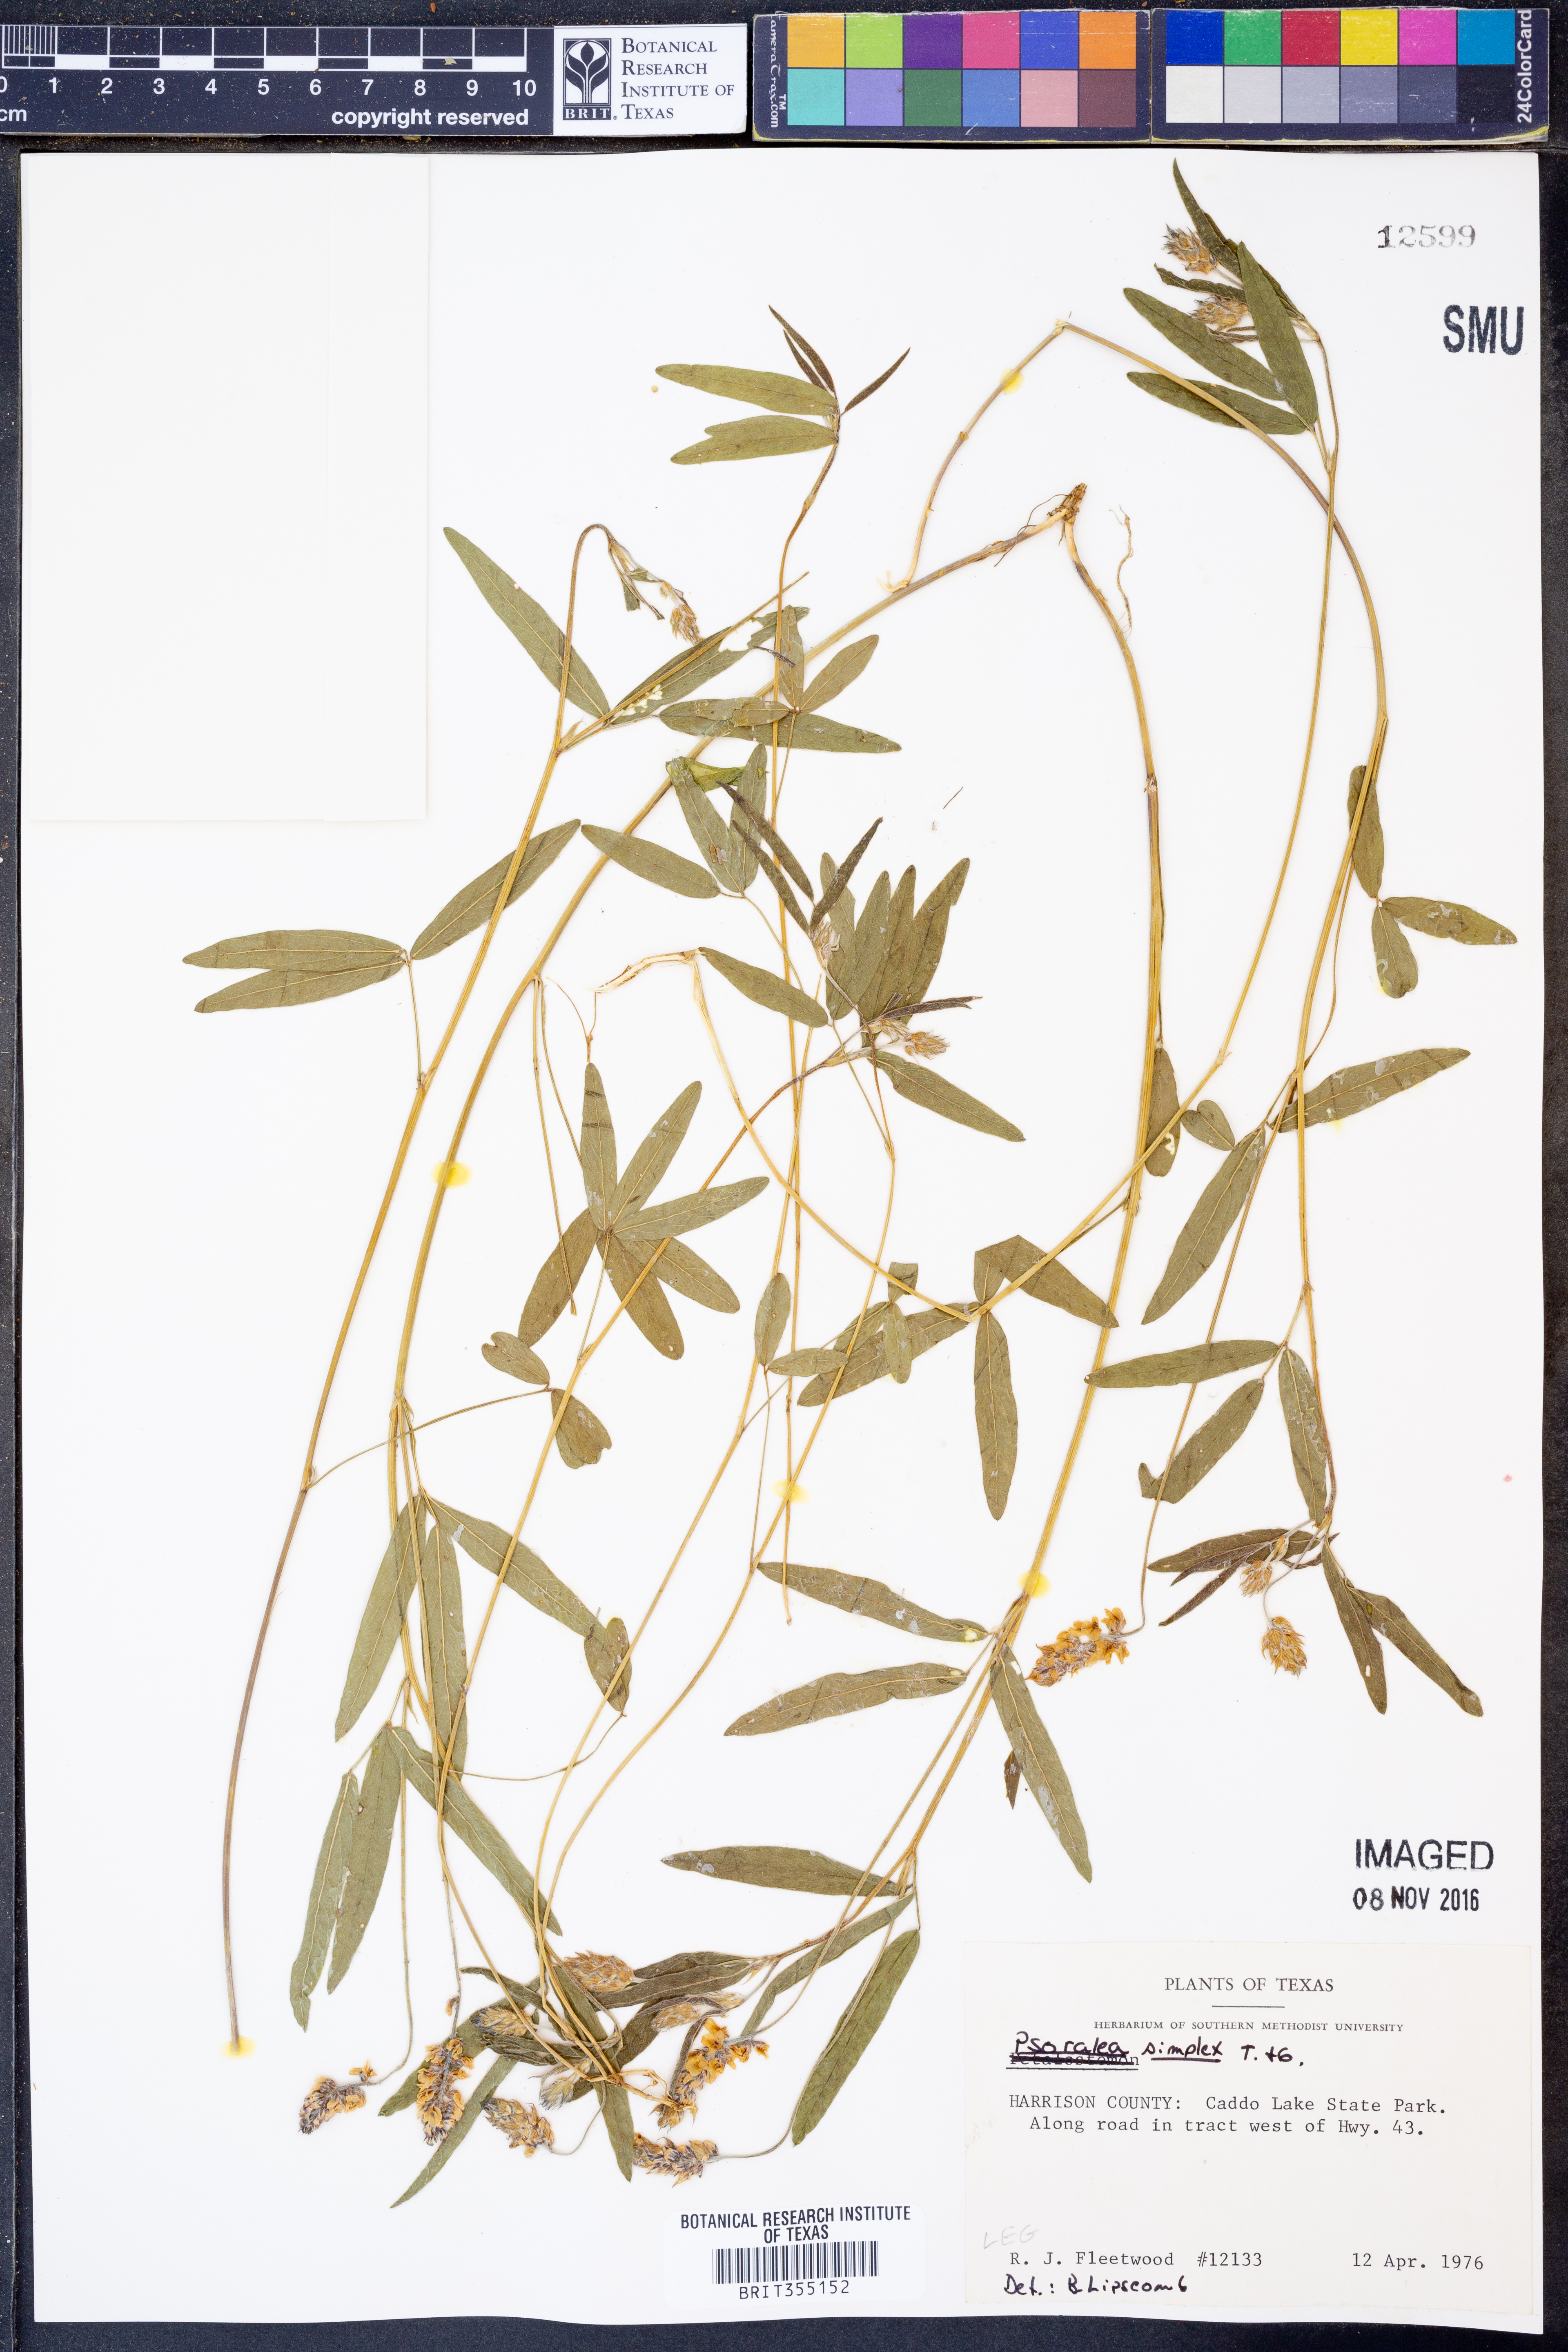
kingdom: Plantae
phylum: Tracheophyta
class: Magnoliopsida
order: Fabales
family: Fabaceae
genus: Orbexilum
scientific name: Orbexilum simplex
